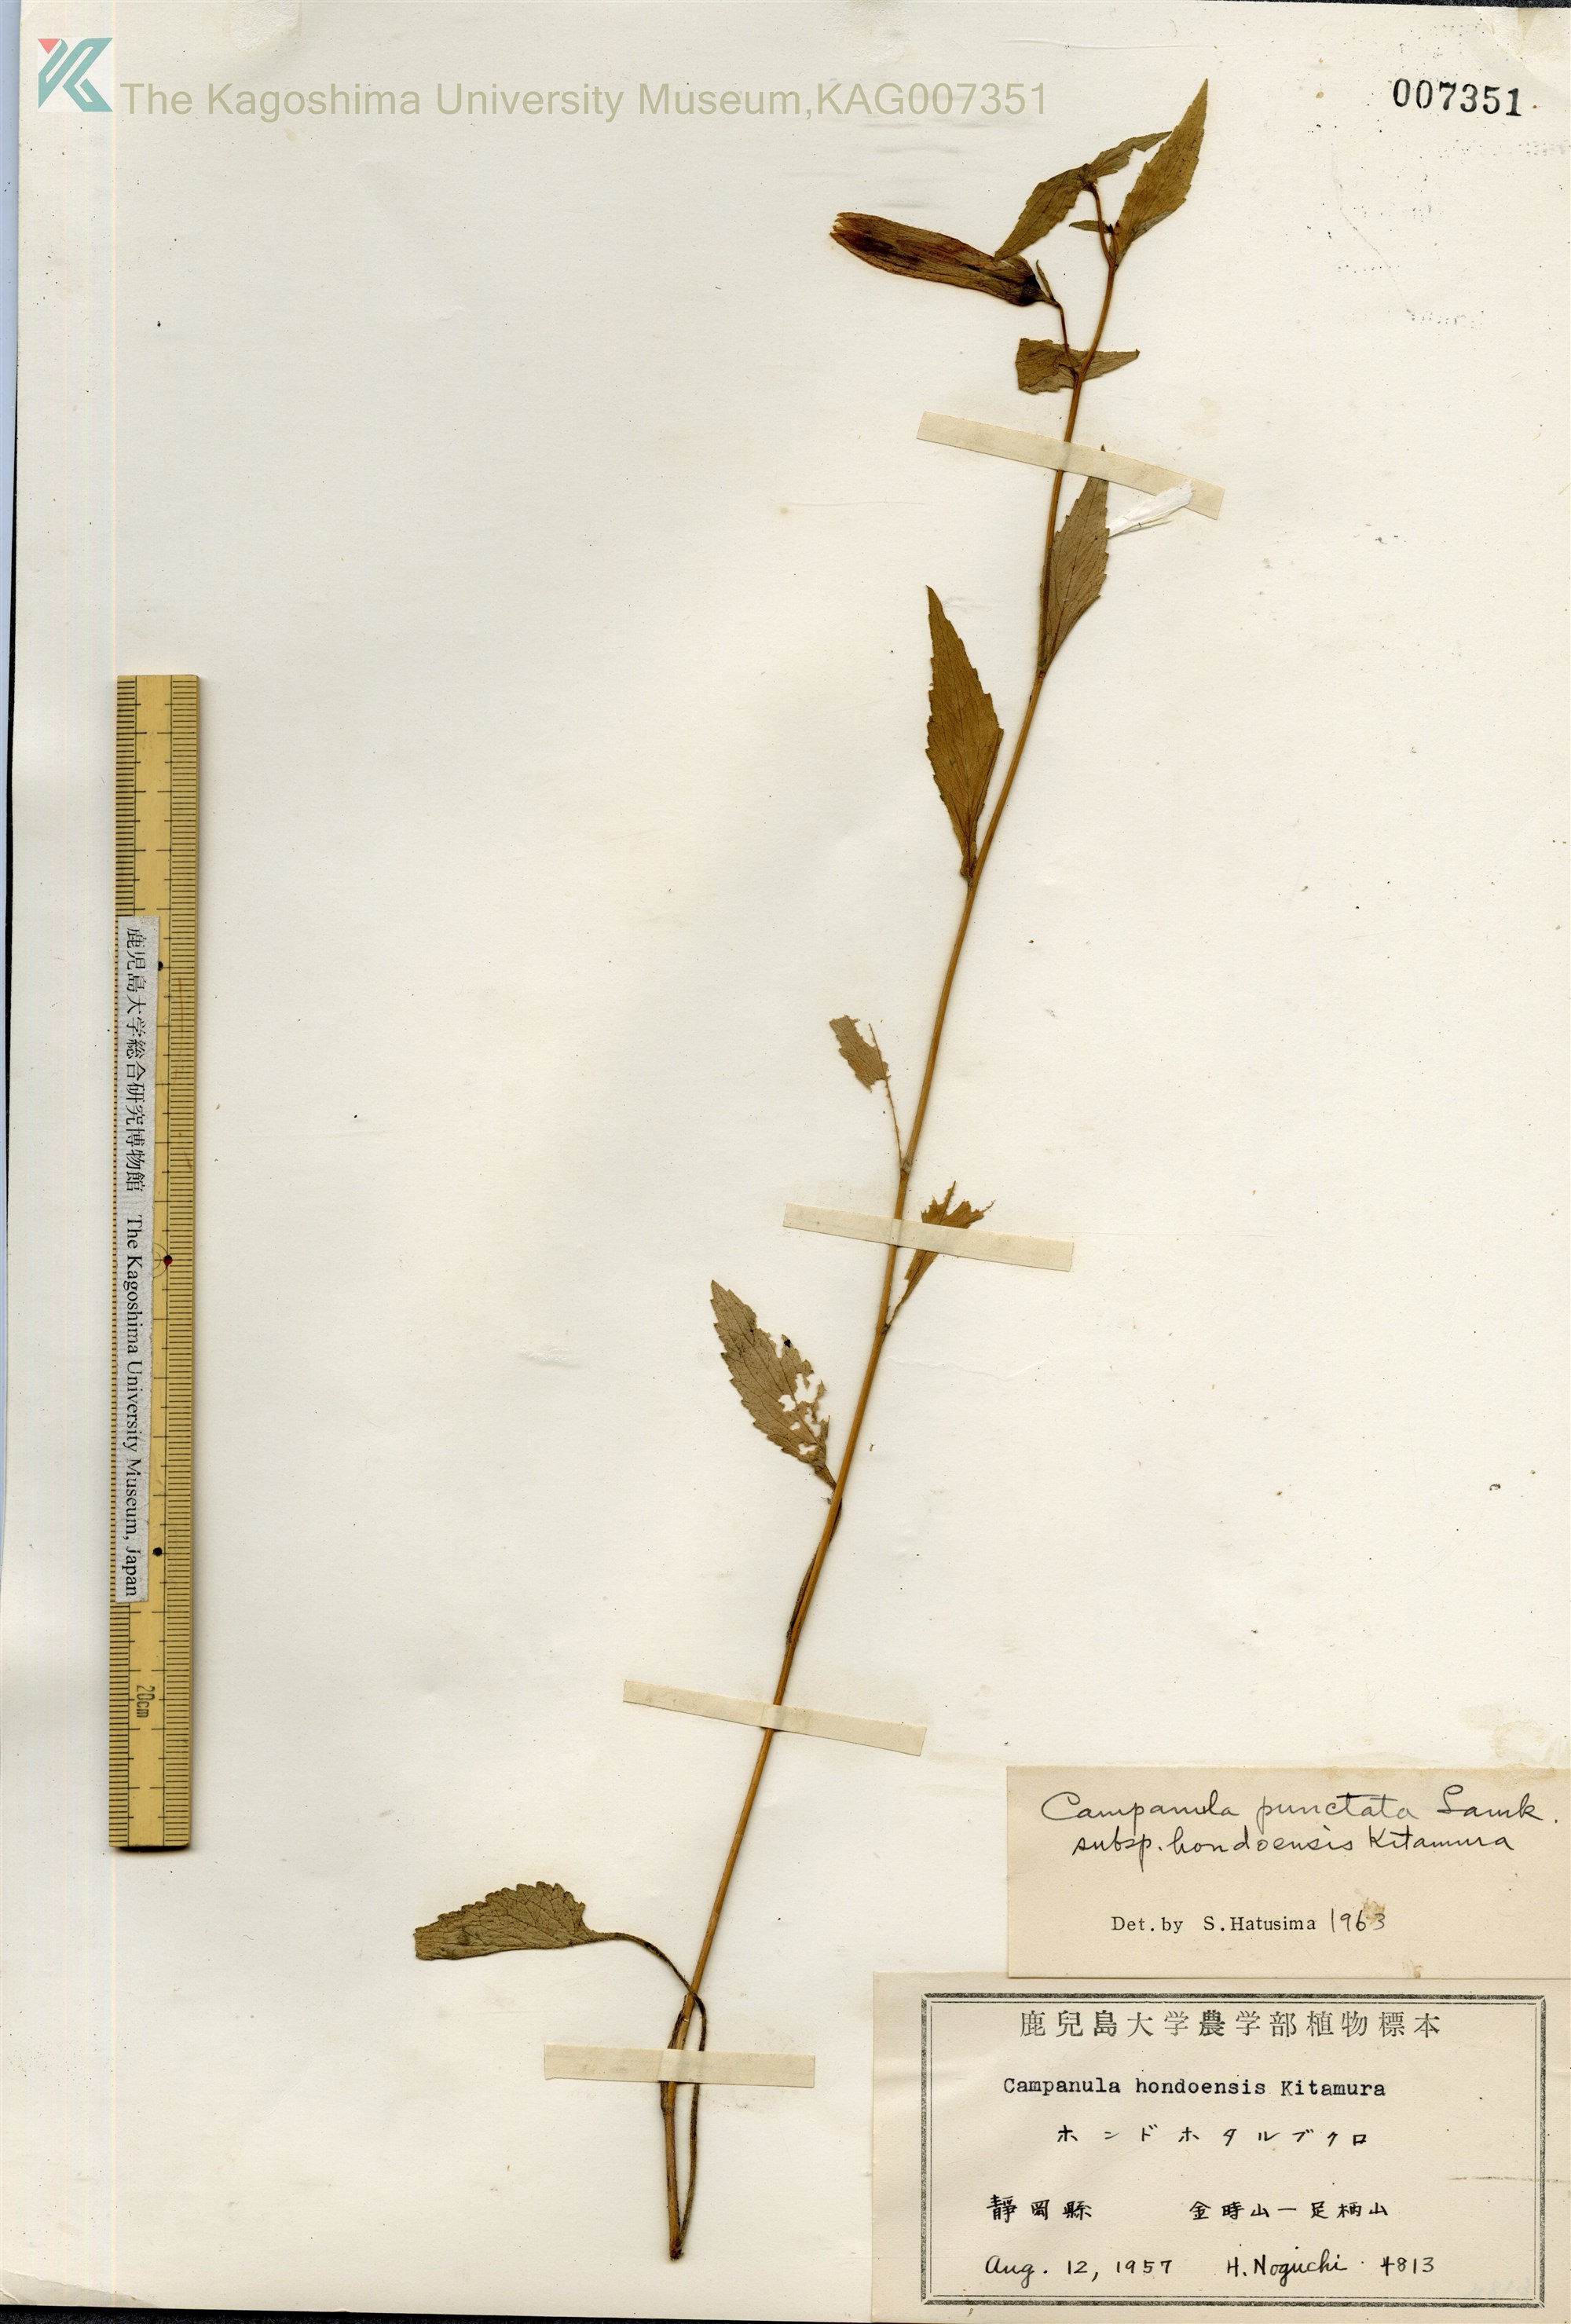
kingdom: Plantae
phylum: Tracheophyta
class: Magnoliopsida
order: Asterales
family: Campanulaceae
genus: Campanula
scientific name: Campanula punctata
